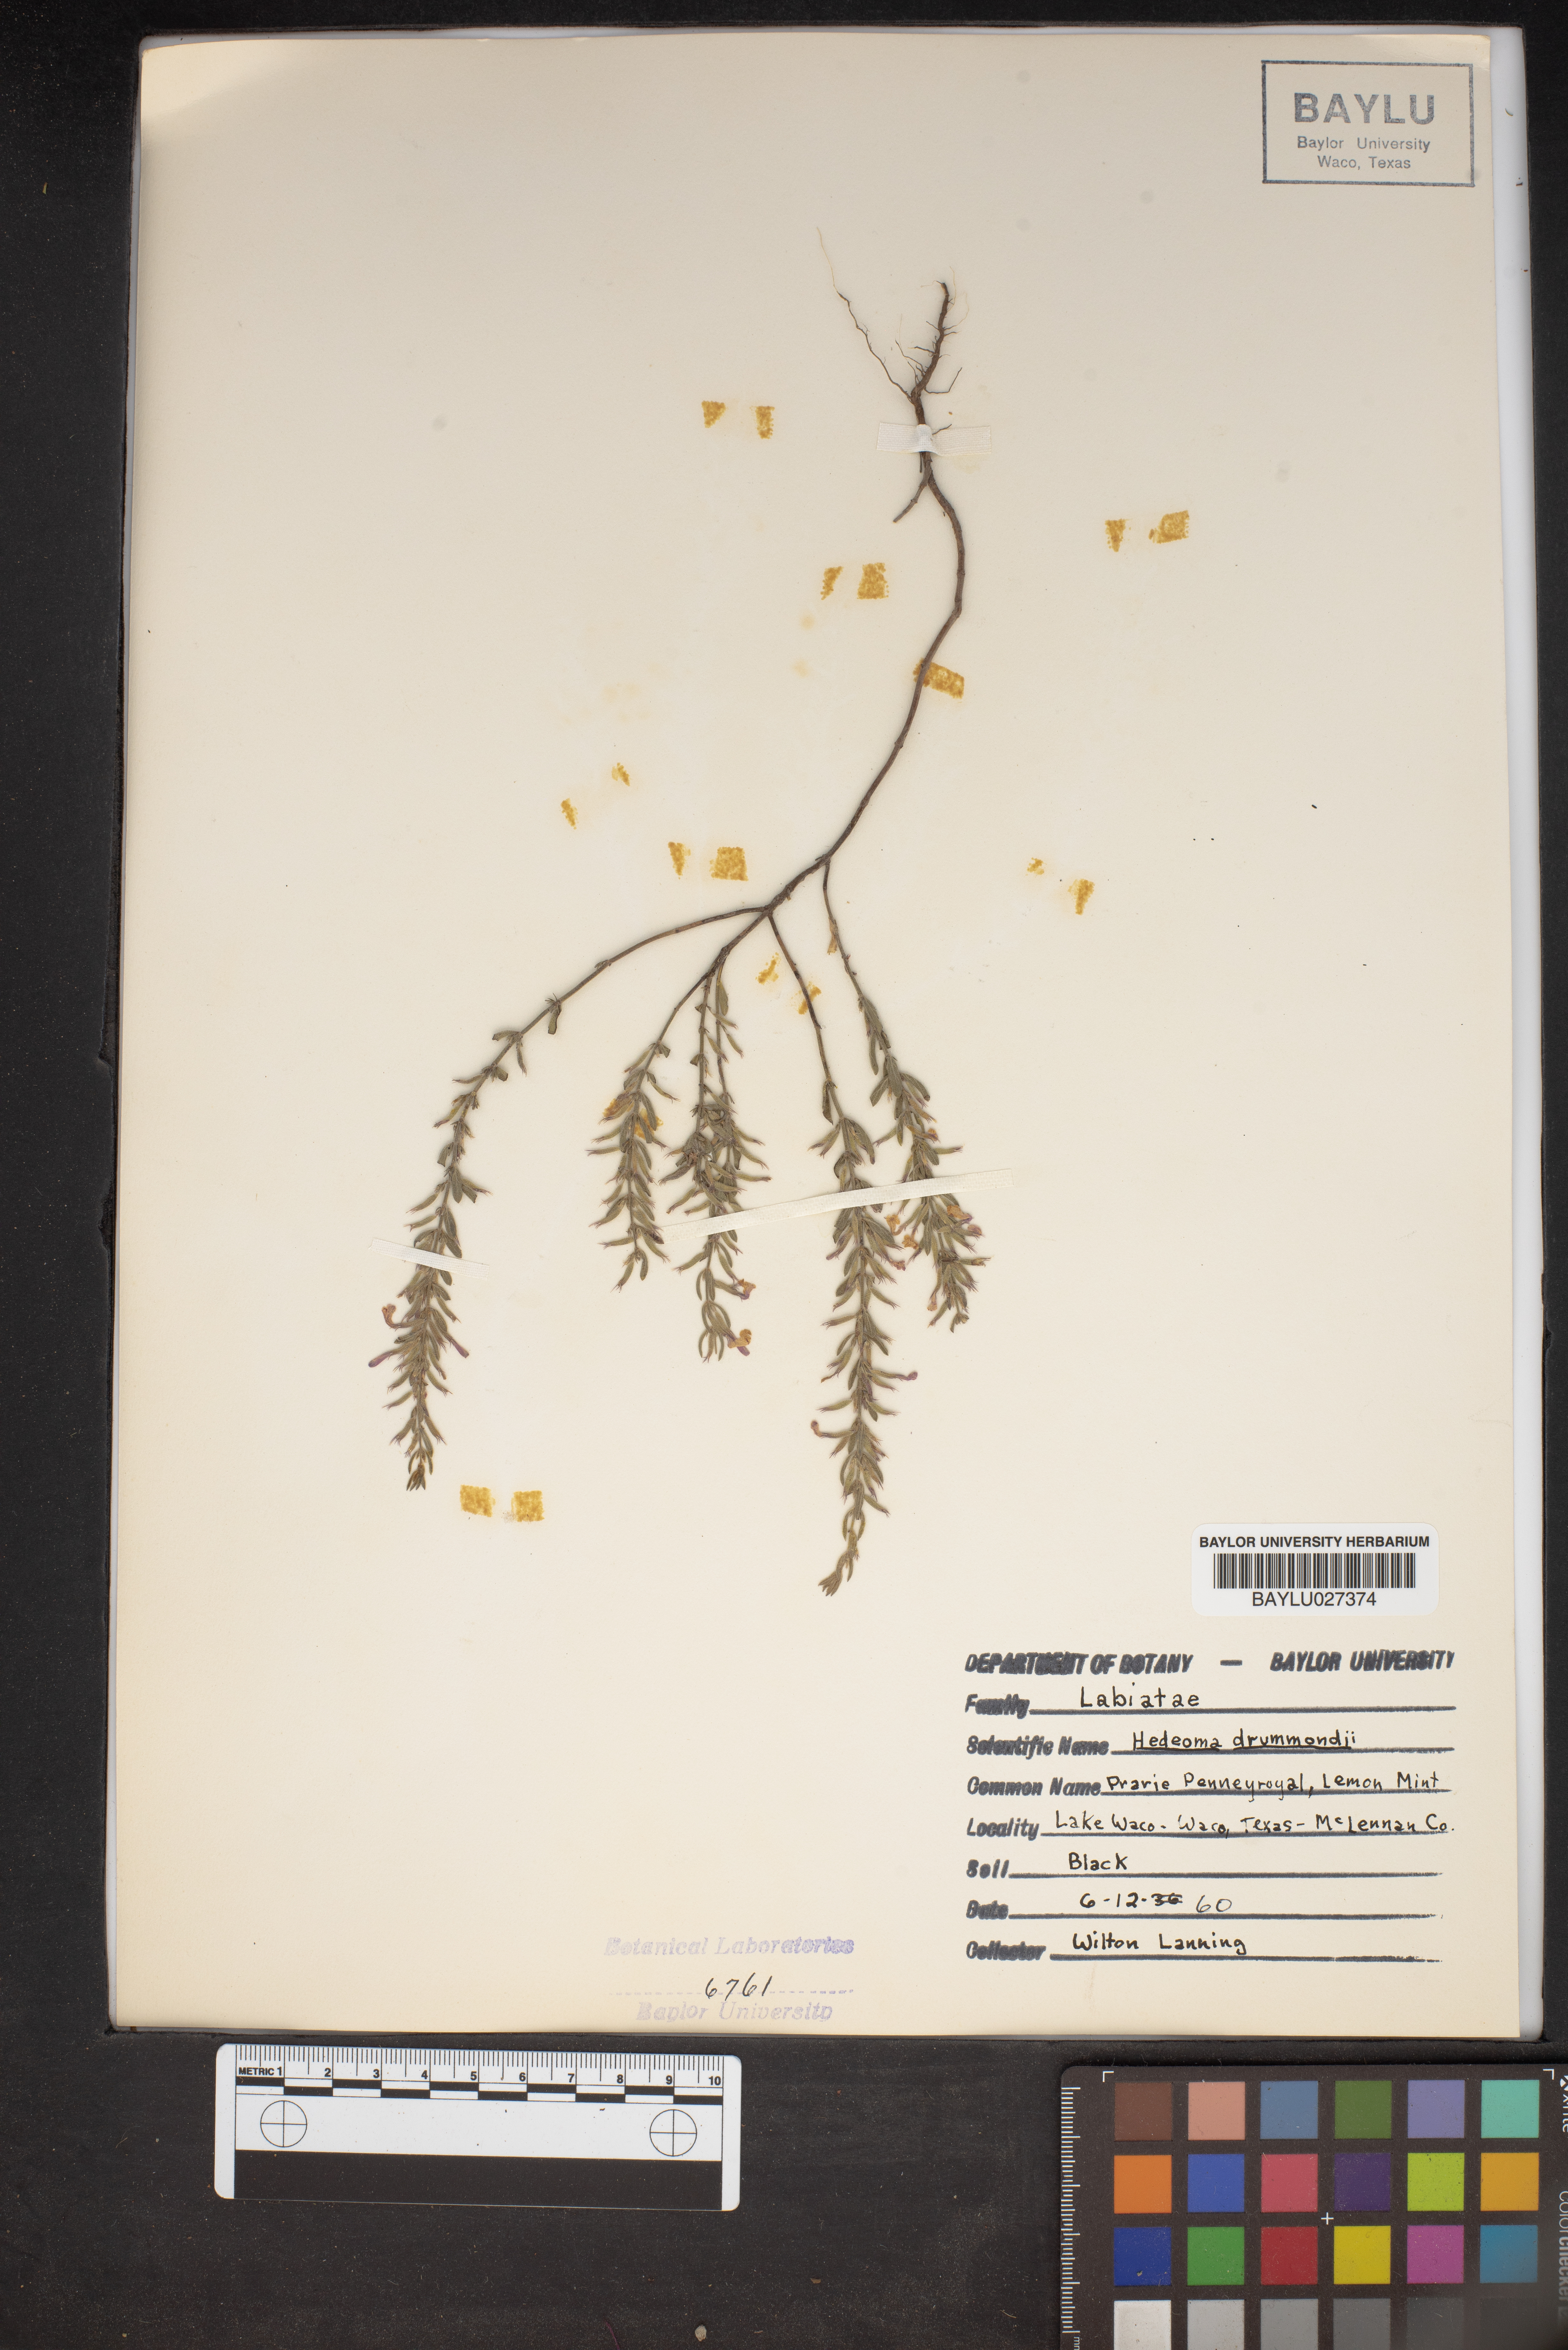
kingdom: Plantae
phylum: Tracheophyta
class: Magnoliopsida
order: Lamiales
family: Lamiaceae
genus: Hedeoma
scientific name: Hedeoma drummondii
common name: New mexico pennyroyal
